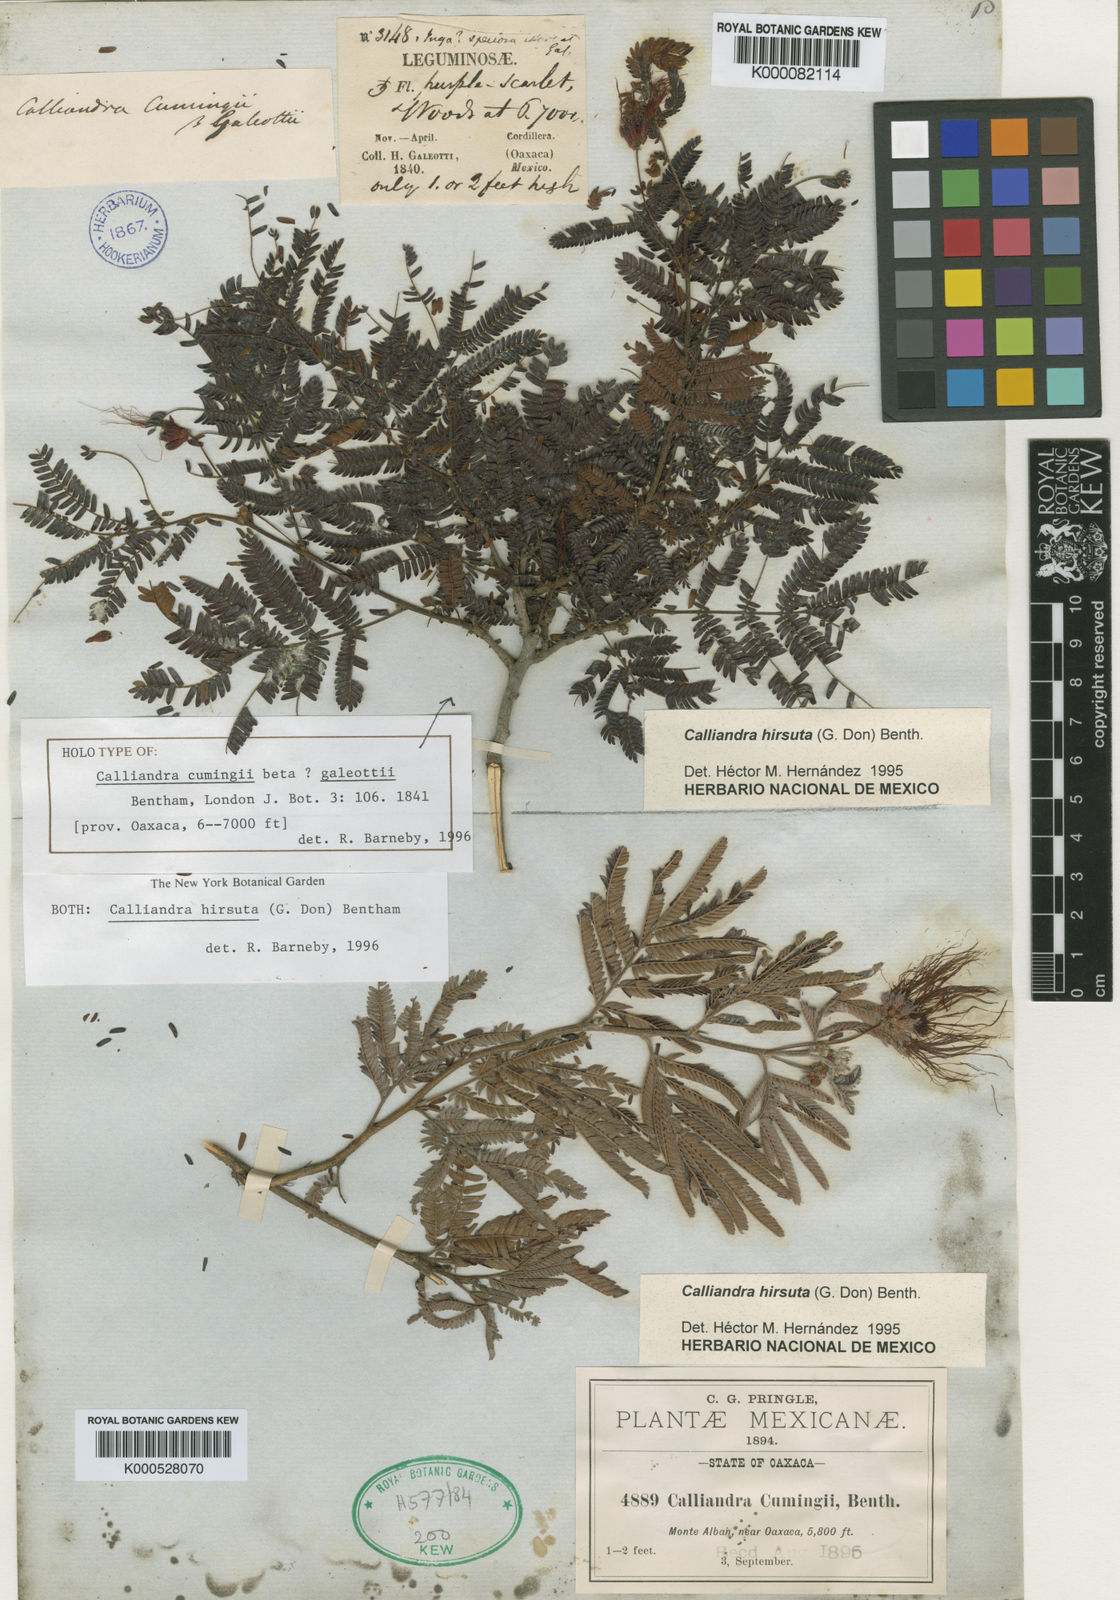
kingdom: Plantae
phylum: Tracheophyta
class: Magnoliopsida
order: Fabales
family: Fabaceae
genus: Calliandra
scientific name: Calliandra hirsuta
